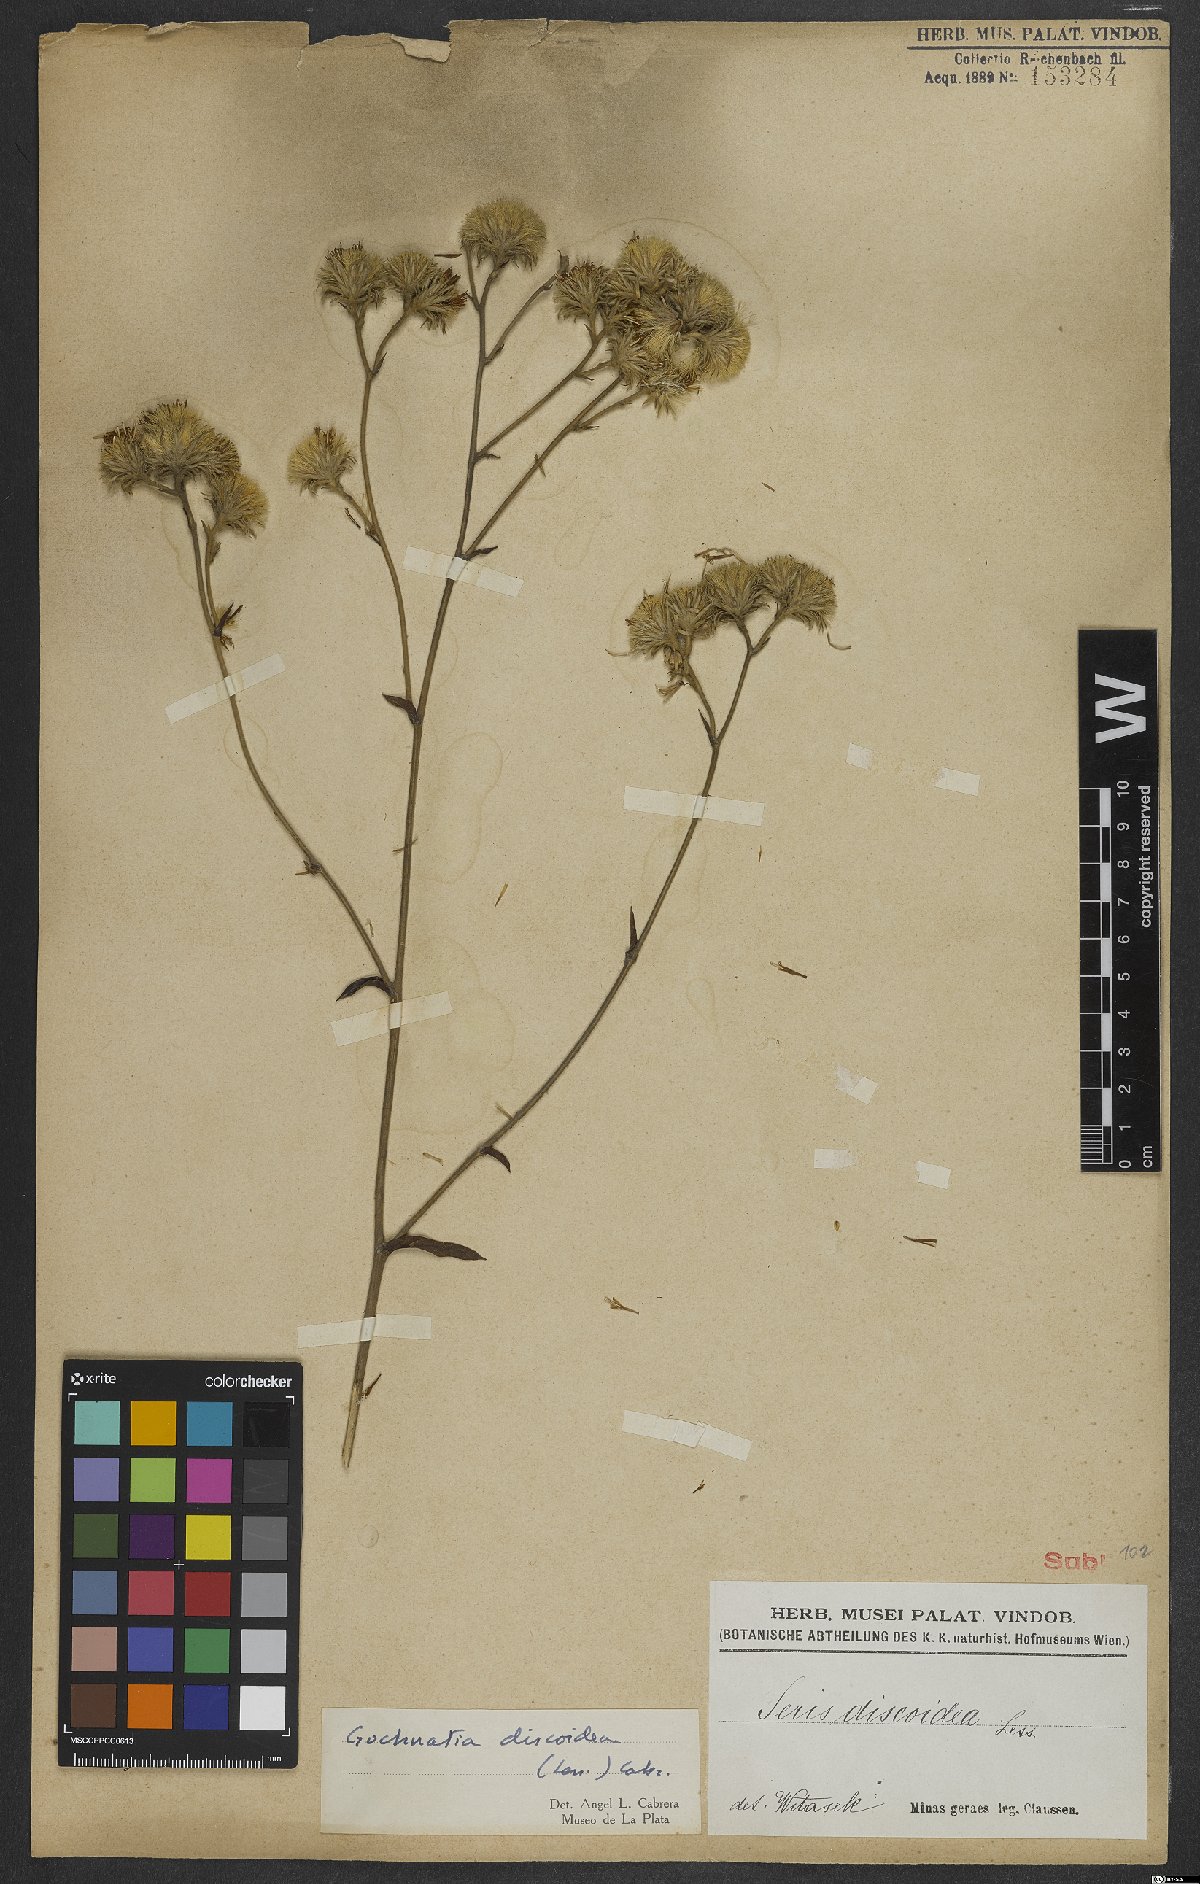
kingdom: Plantae
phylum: Tracheophyta
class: Magnoliopsida
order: Asterales
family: Asteraceae
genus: Richterago
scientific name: Richterago discoidea
